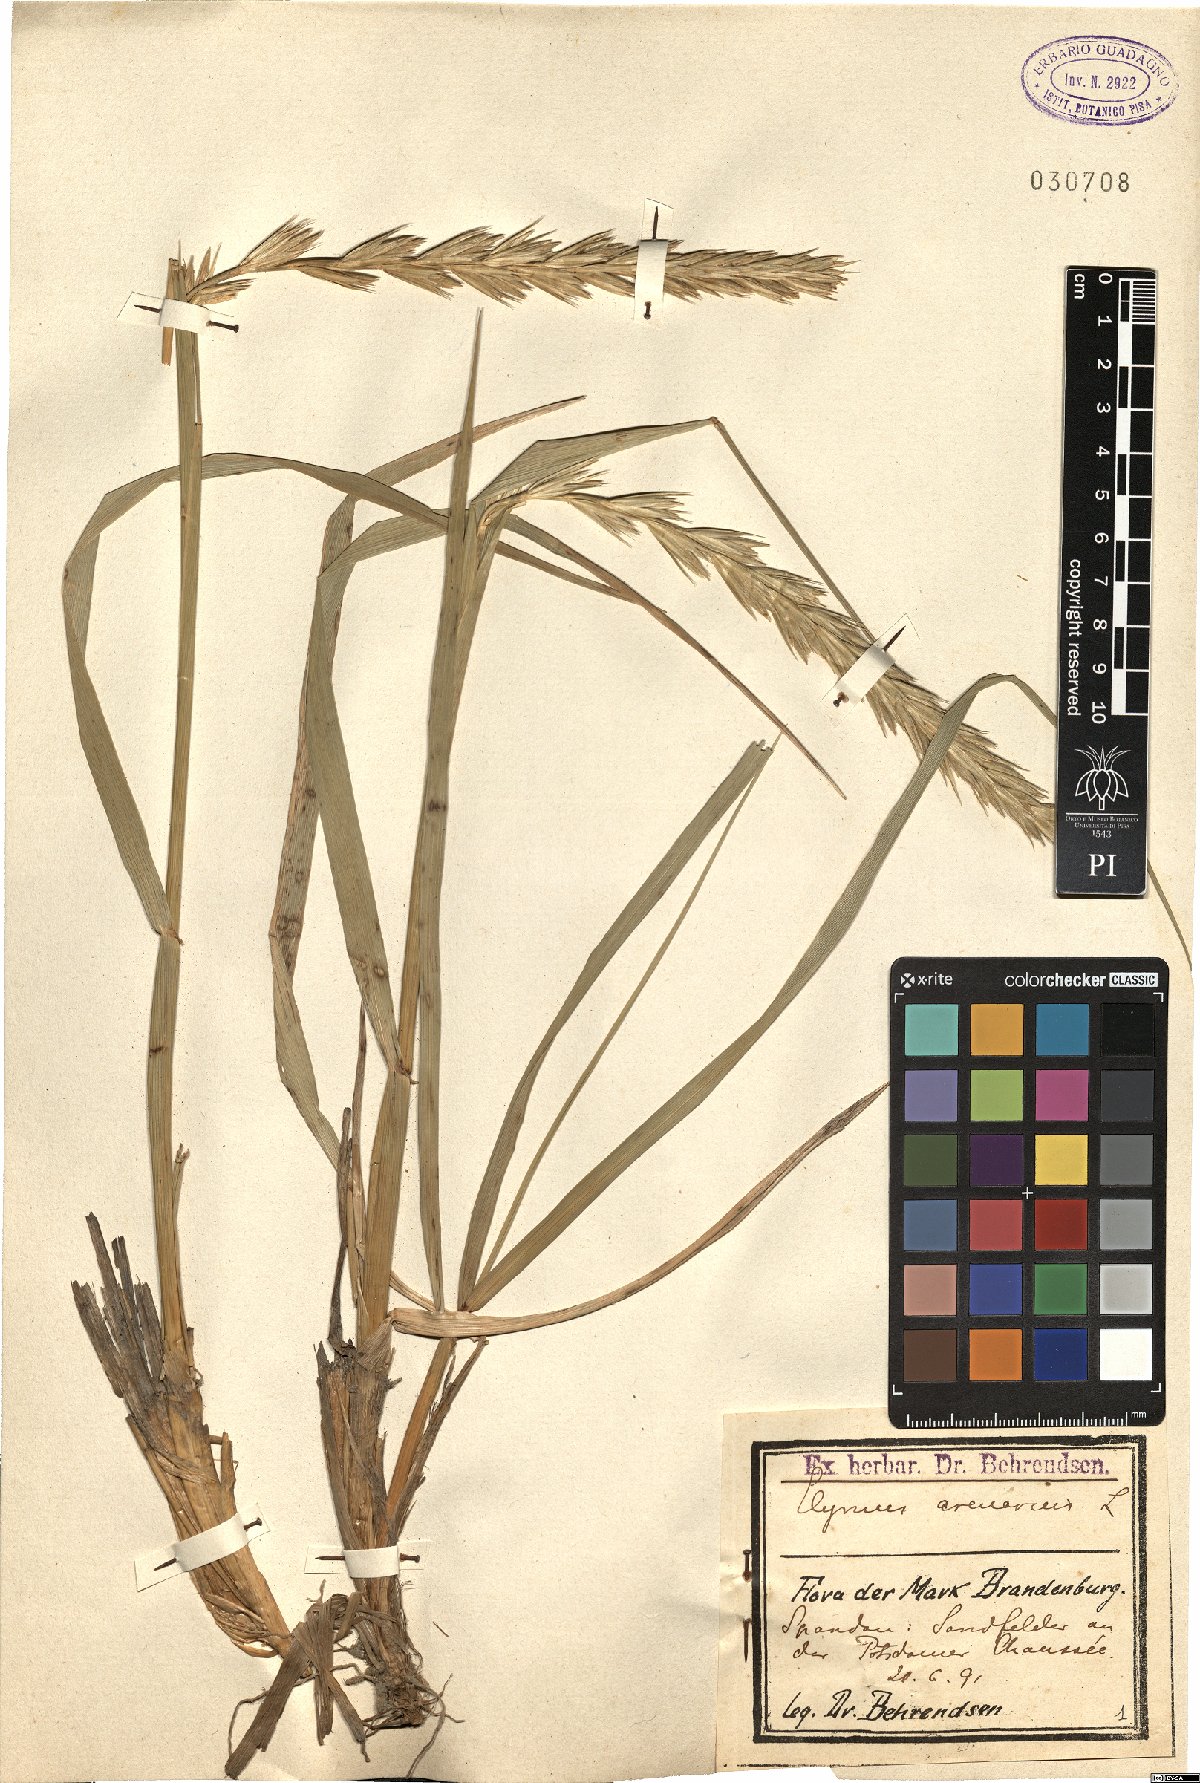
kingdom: Plantae
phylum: Tracheophyta
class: Liliopsida
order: Poales
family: Poaceae
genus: Leymus
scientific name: Leymus arenarius
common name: Lyme-grass
